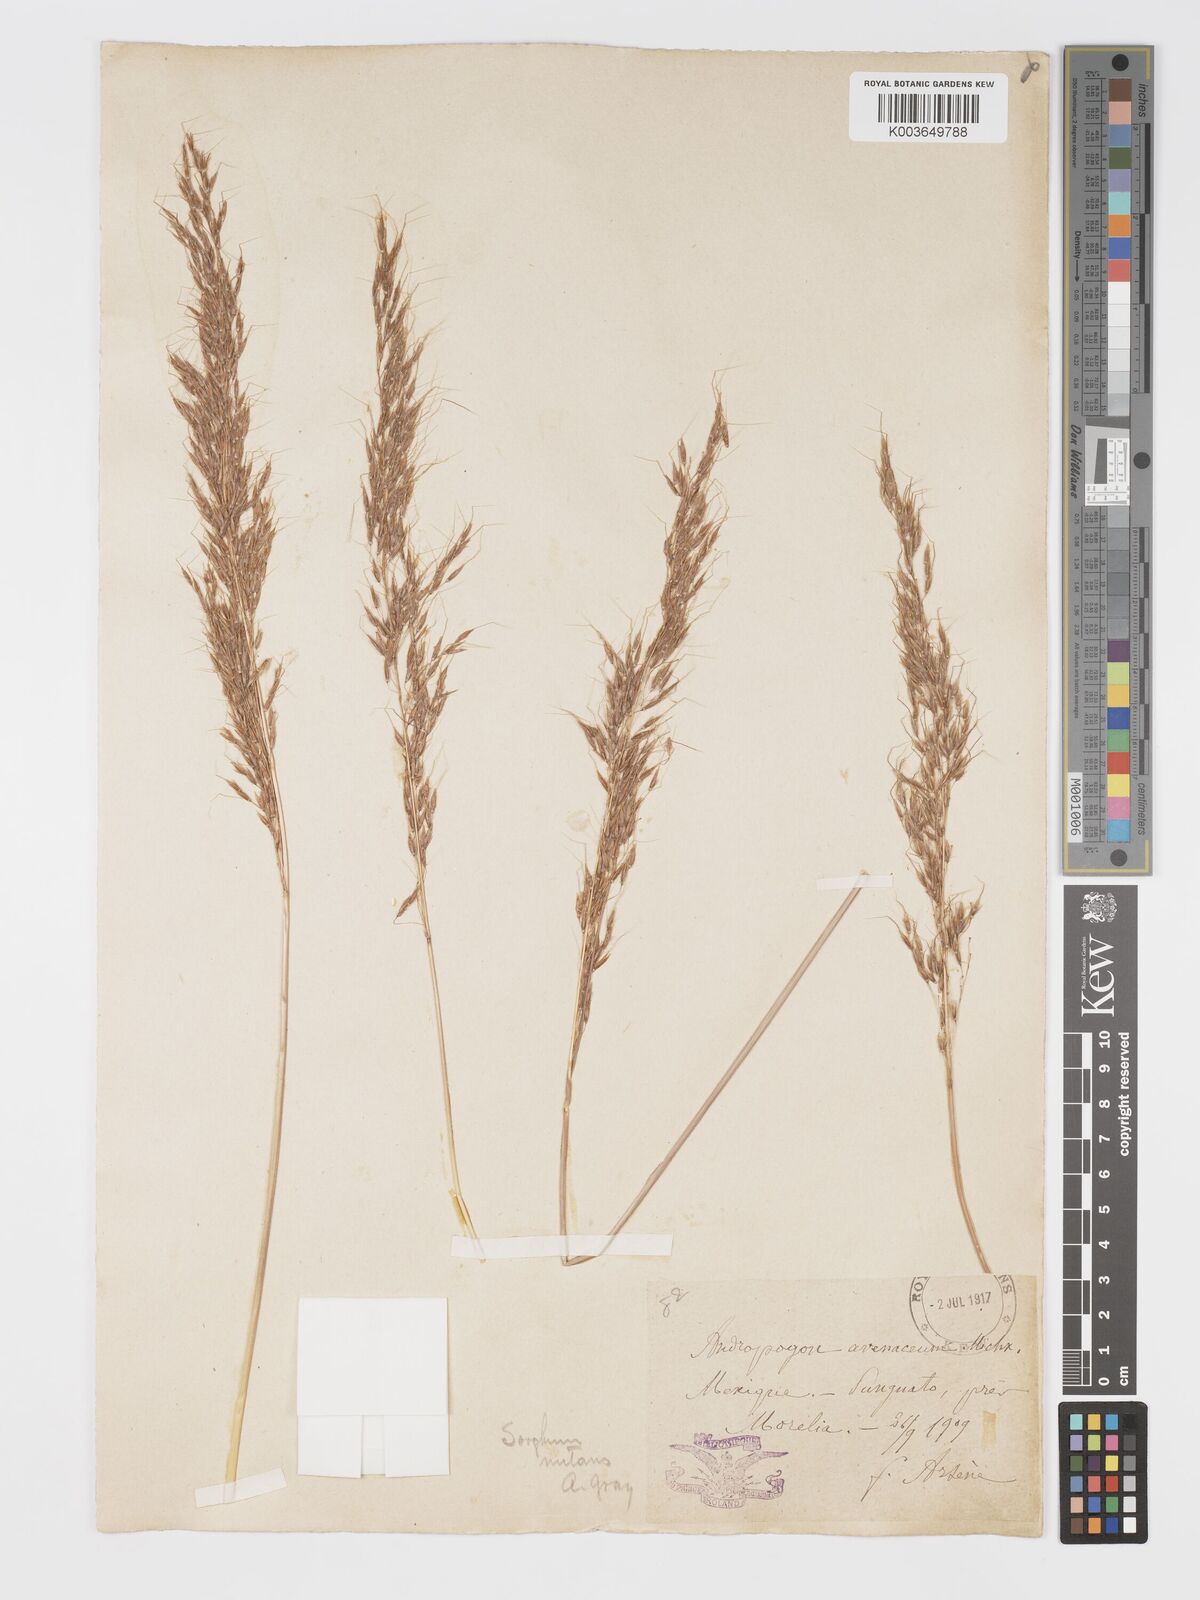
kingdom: Plantae
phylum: Tracheophyta
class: Liliopsida
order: Poales
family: Poaceae
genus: Sorghastrum
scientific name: Sorghastrum nutans
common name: Indian grass
